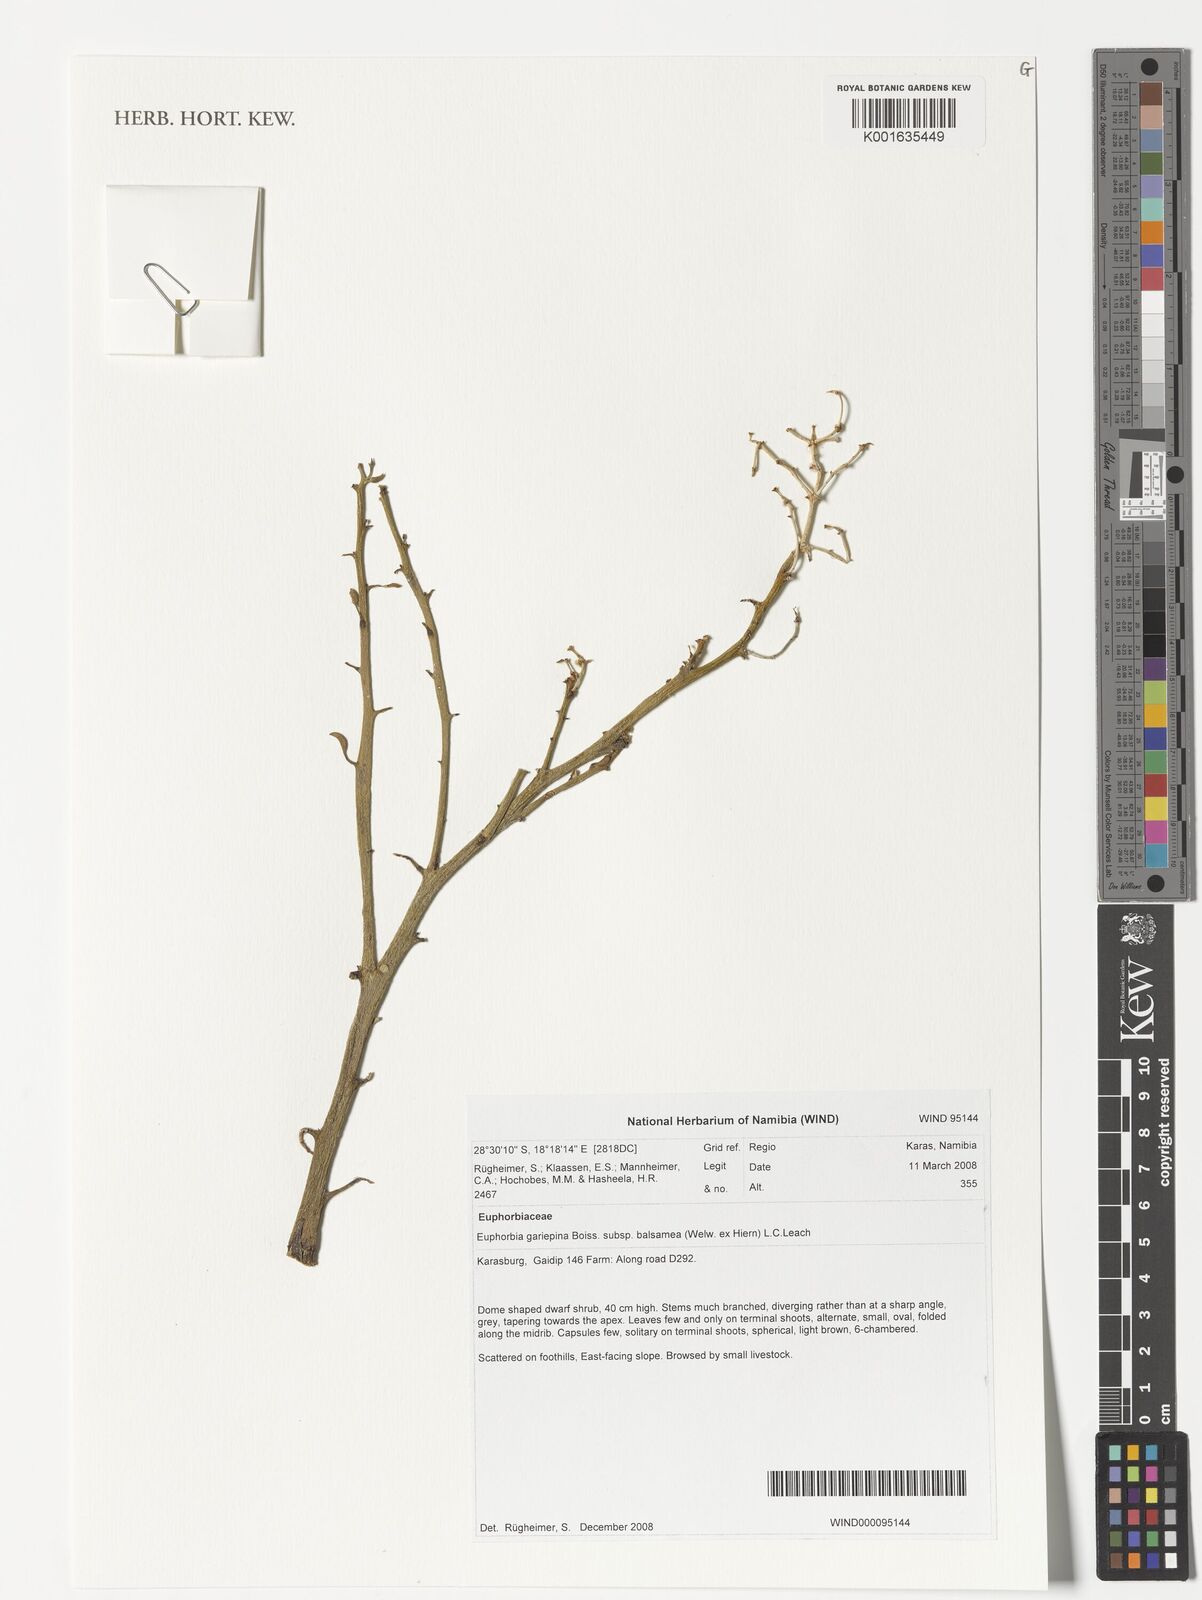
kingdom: Plantae
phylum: Tracheophyta
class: Magnoliopsida
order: Malpighiales
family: Euphorbiaceae
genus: Euphorbia
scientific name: Euphorbia gariepina
